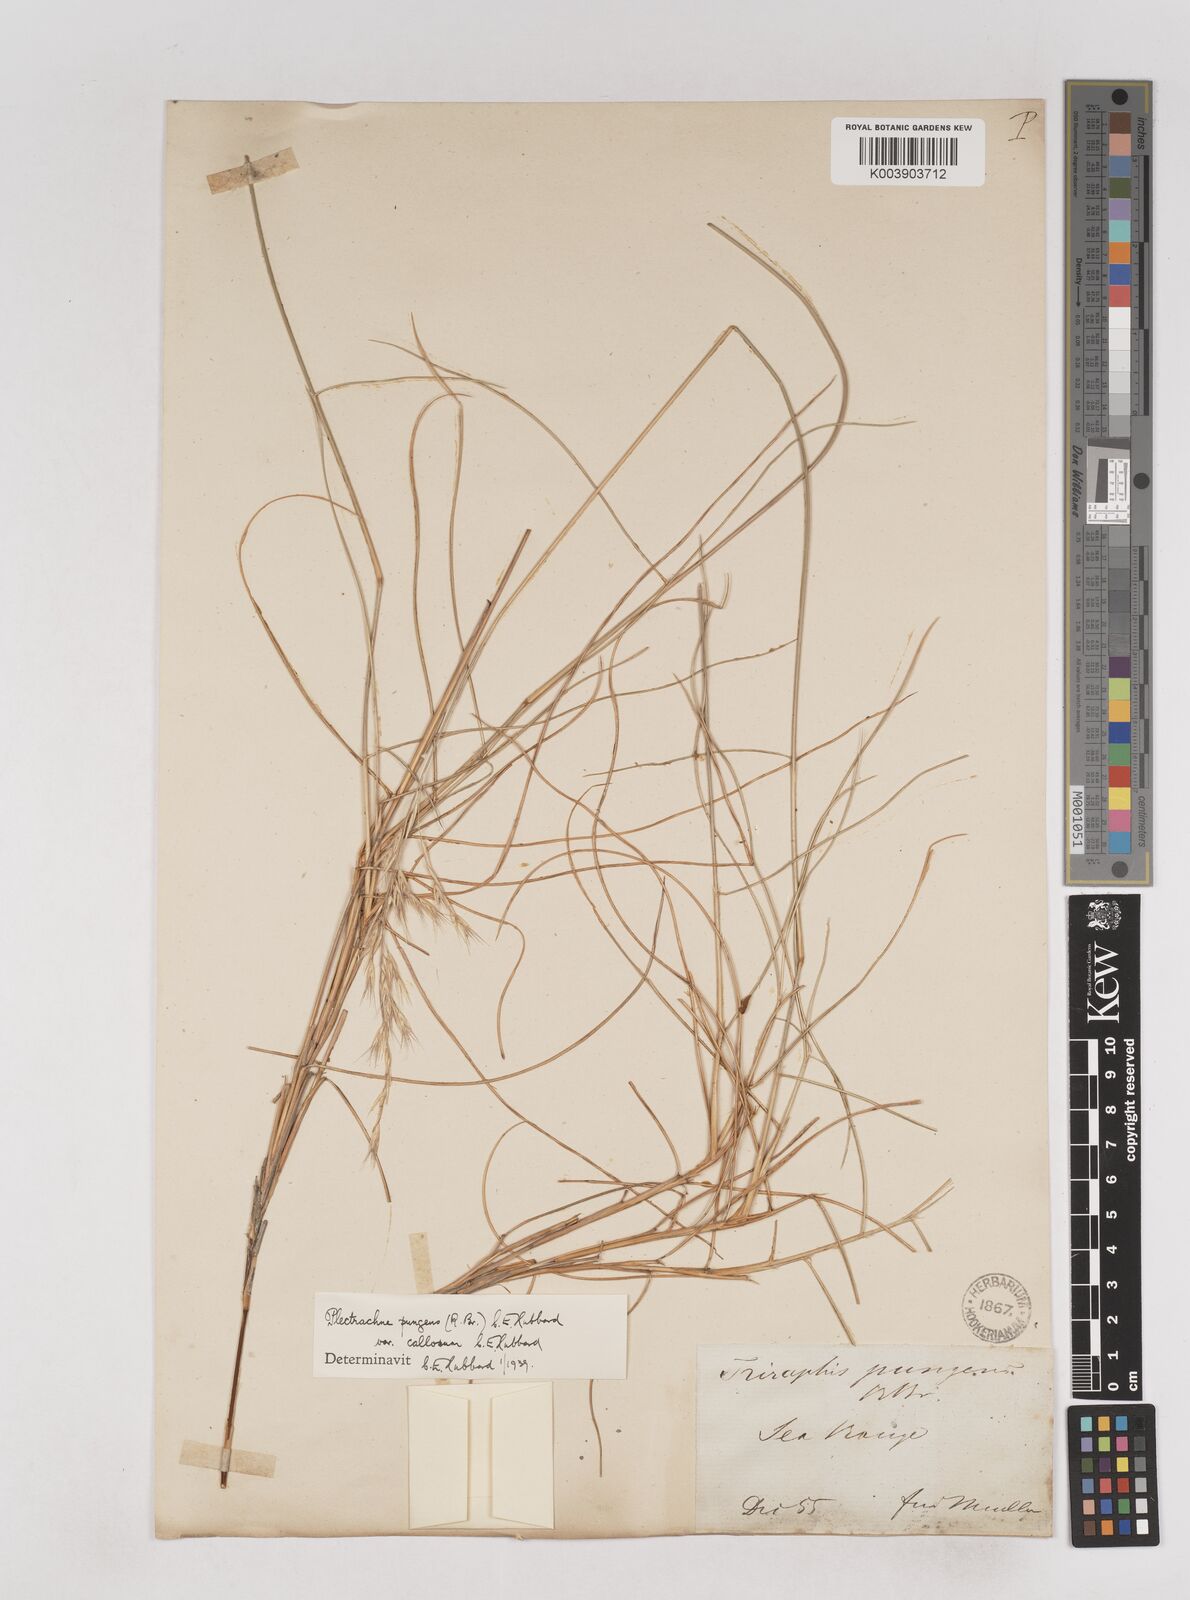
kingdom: Plantae
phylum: Tracheophyta
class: Liliopsida
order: Poales
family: Poaceae
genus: Triodia
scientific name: Triodia bitextura
